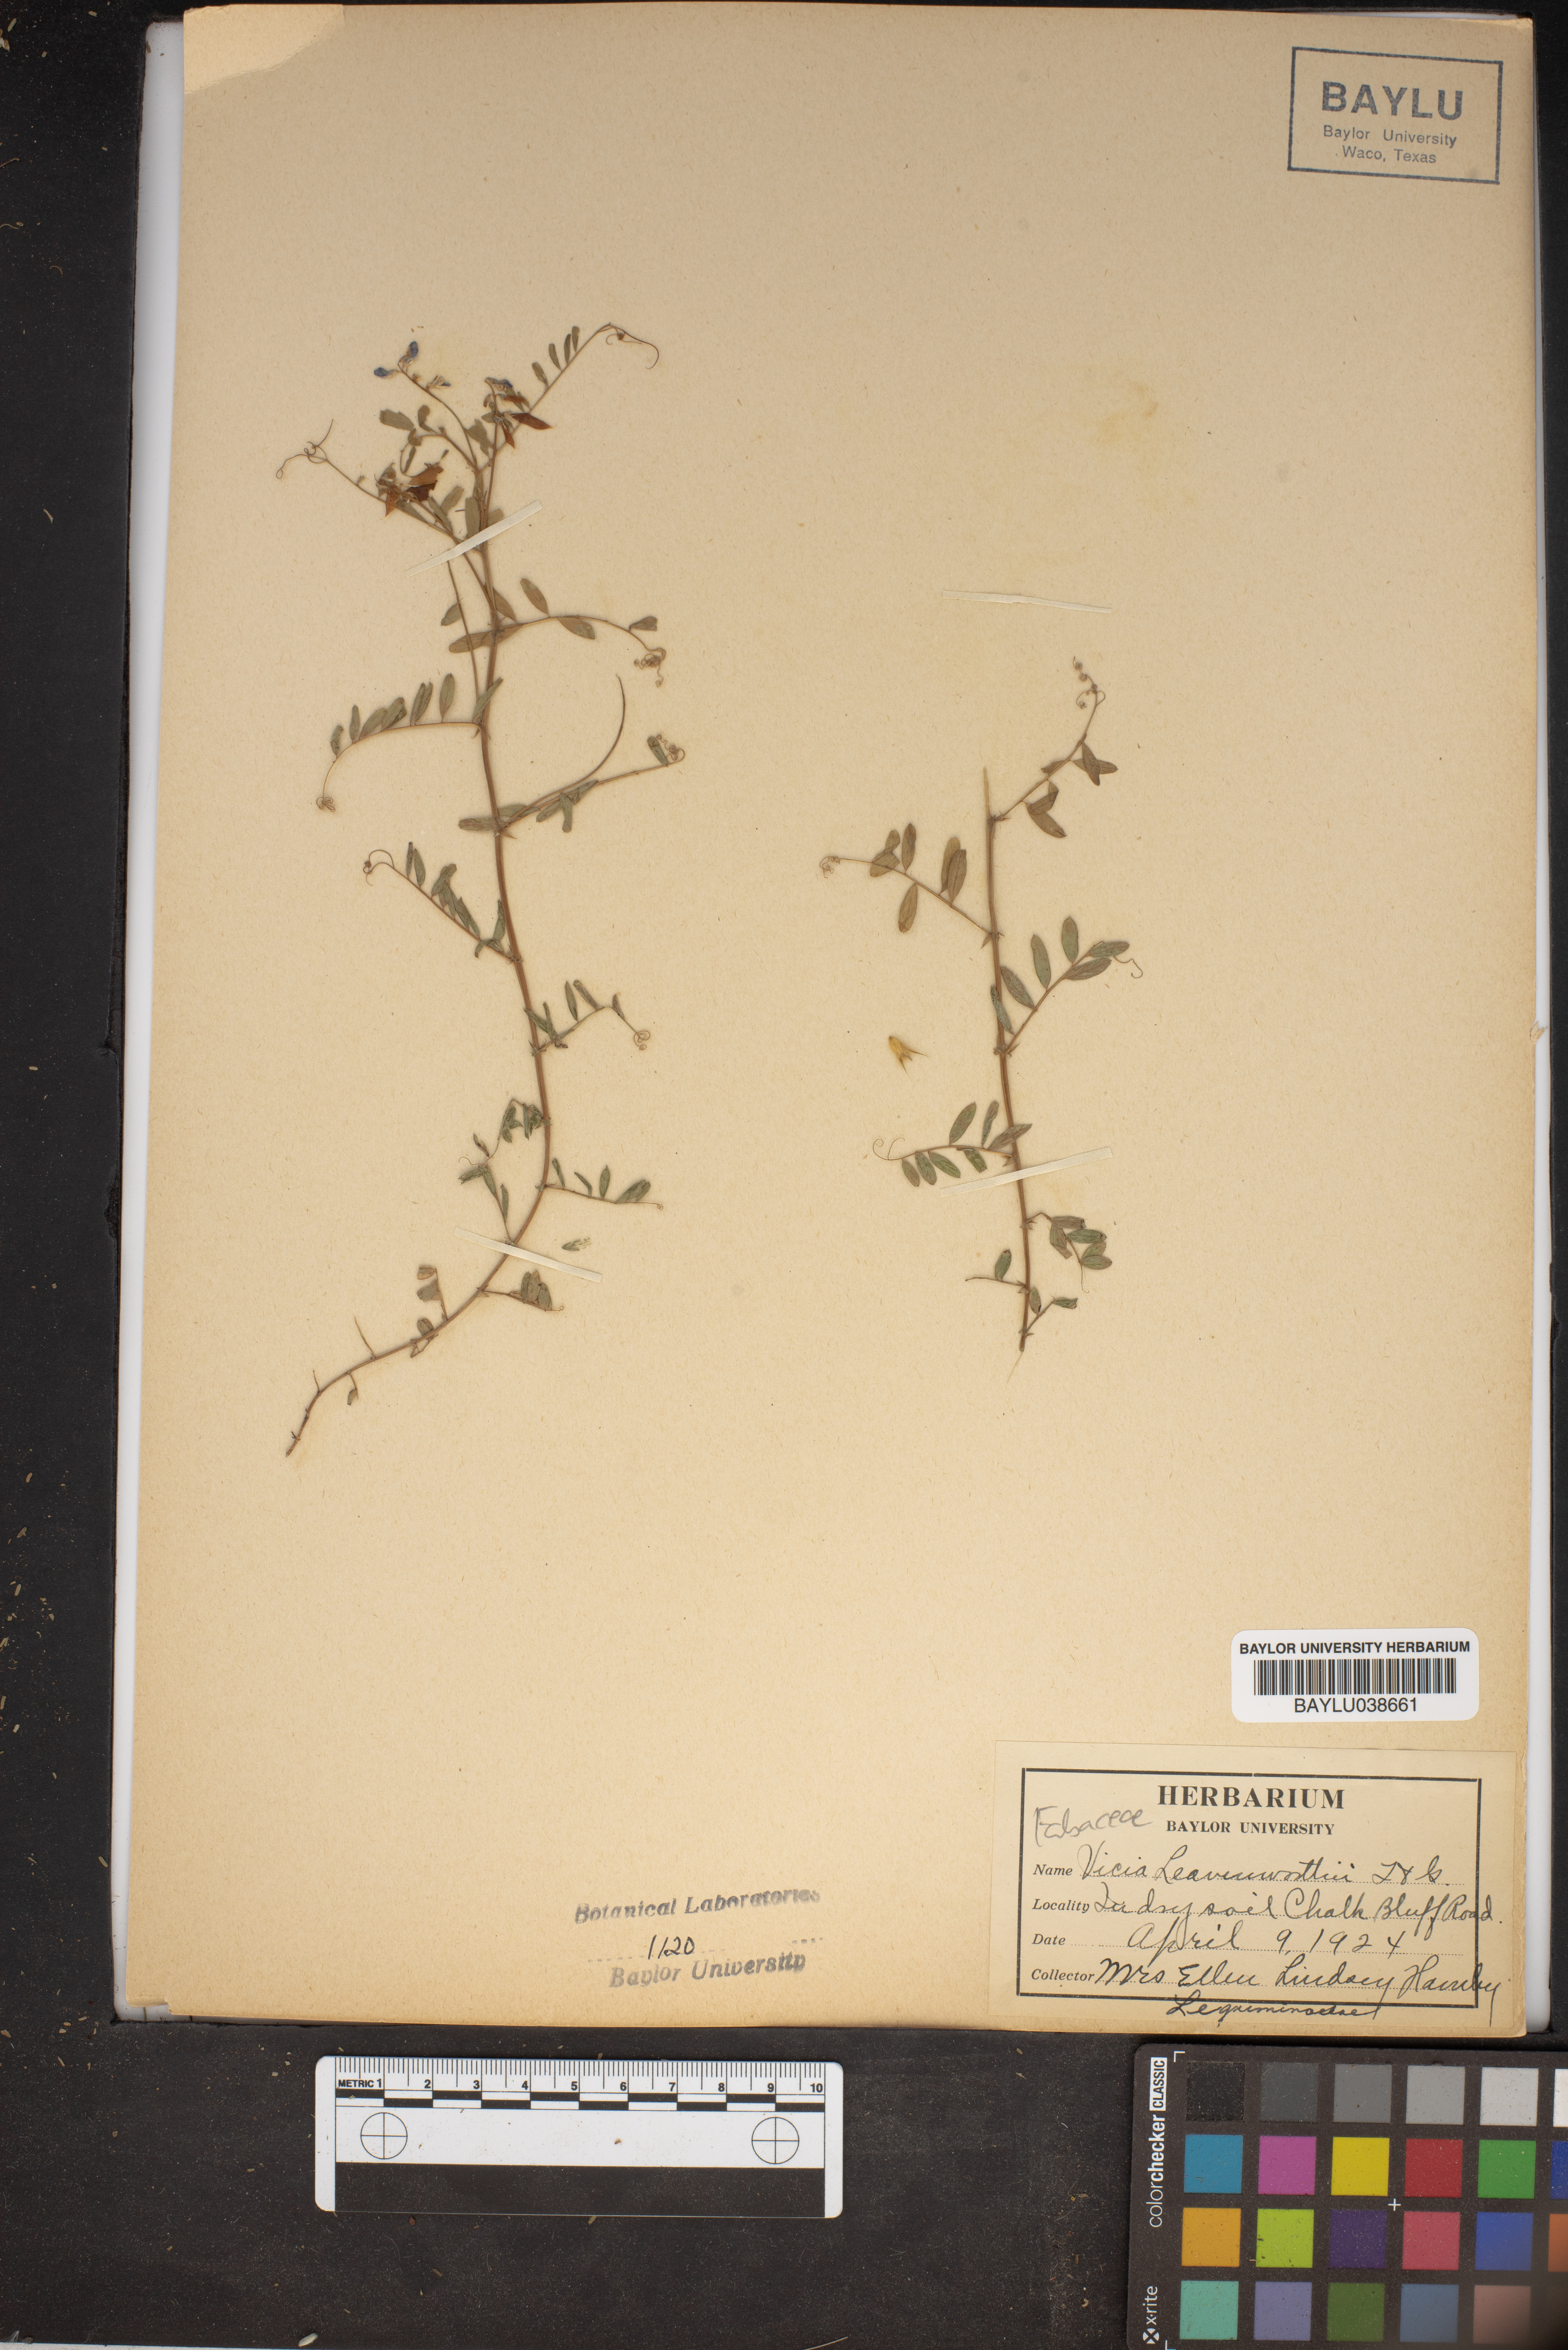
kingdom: Plantae
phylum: Tracheophyta
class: Magnoliopsida
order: Fabales
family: Fabaceae
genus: Vicia
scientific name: Vicia ludoviciana
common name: Louisiana vetch
